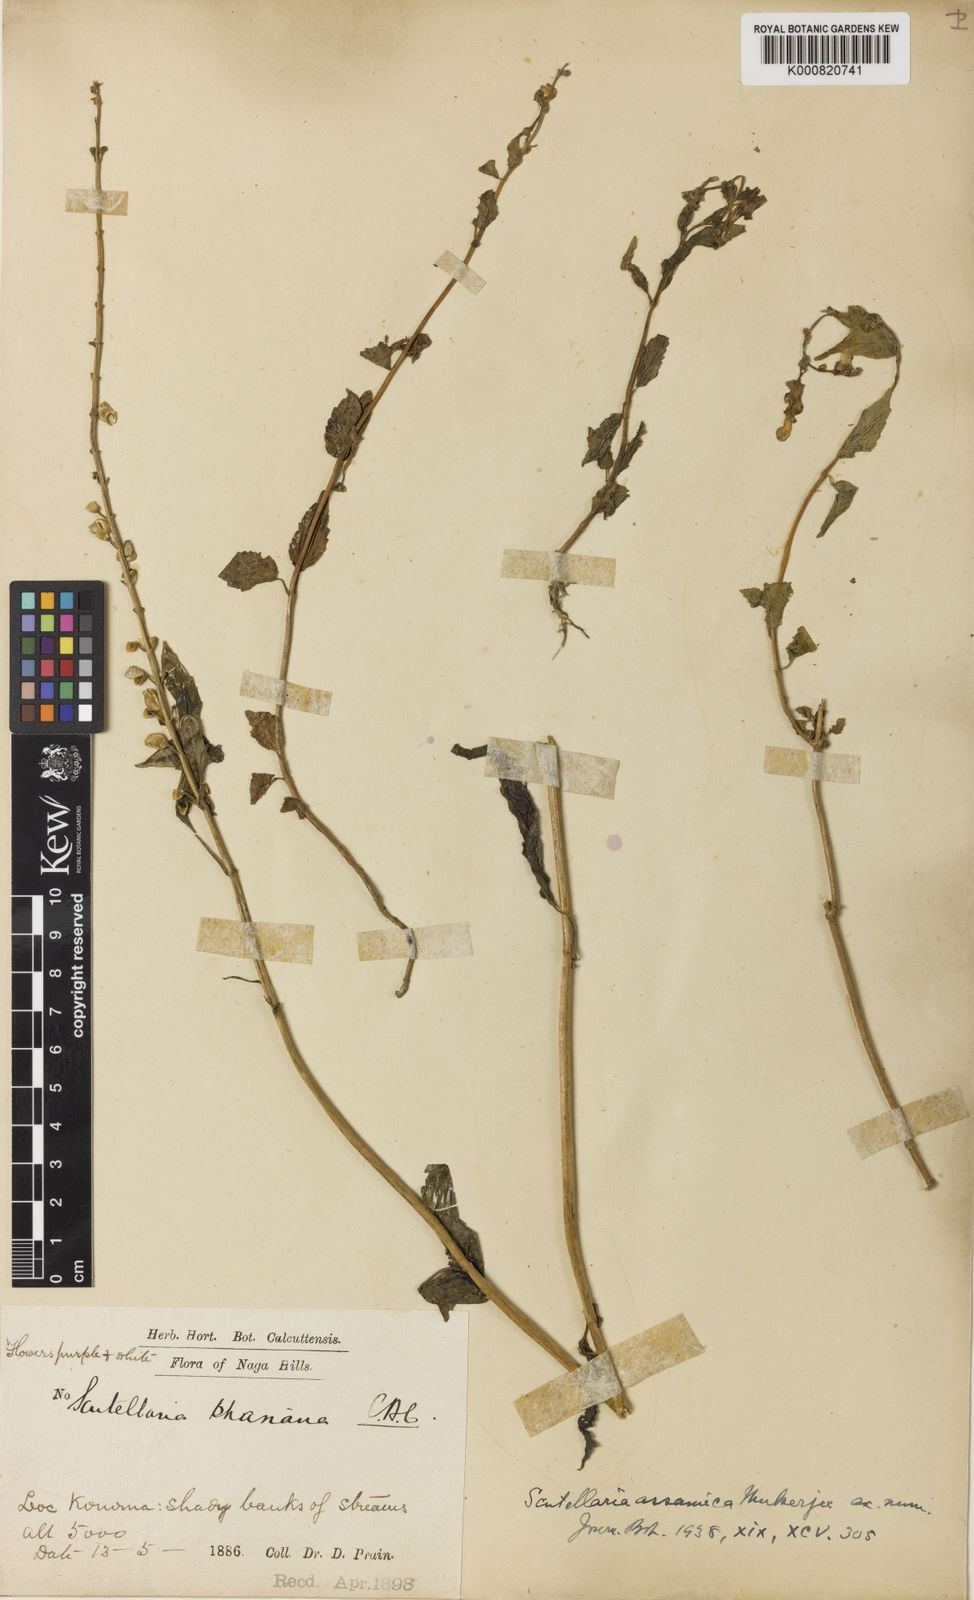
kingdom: Plantae
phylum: Tracheophyta
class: Magnoliopsida
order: Lamiales
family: Lamiaceae
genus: Scutellaria
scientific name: Scutellaria assamica
